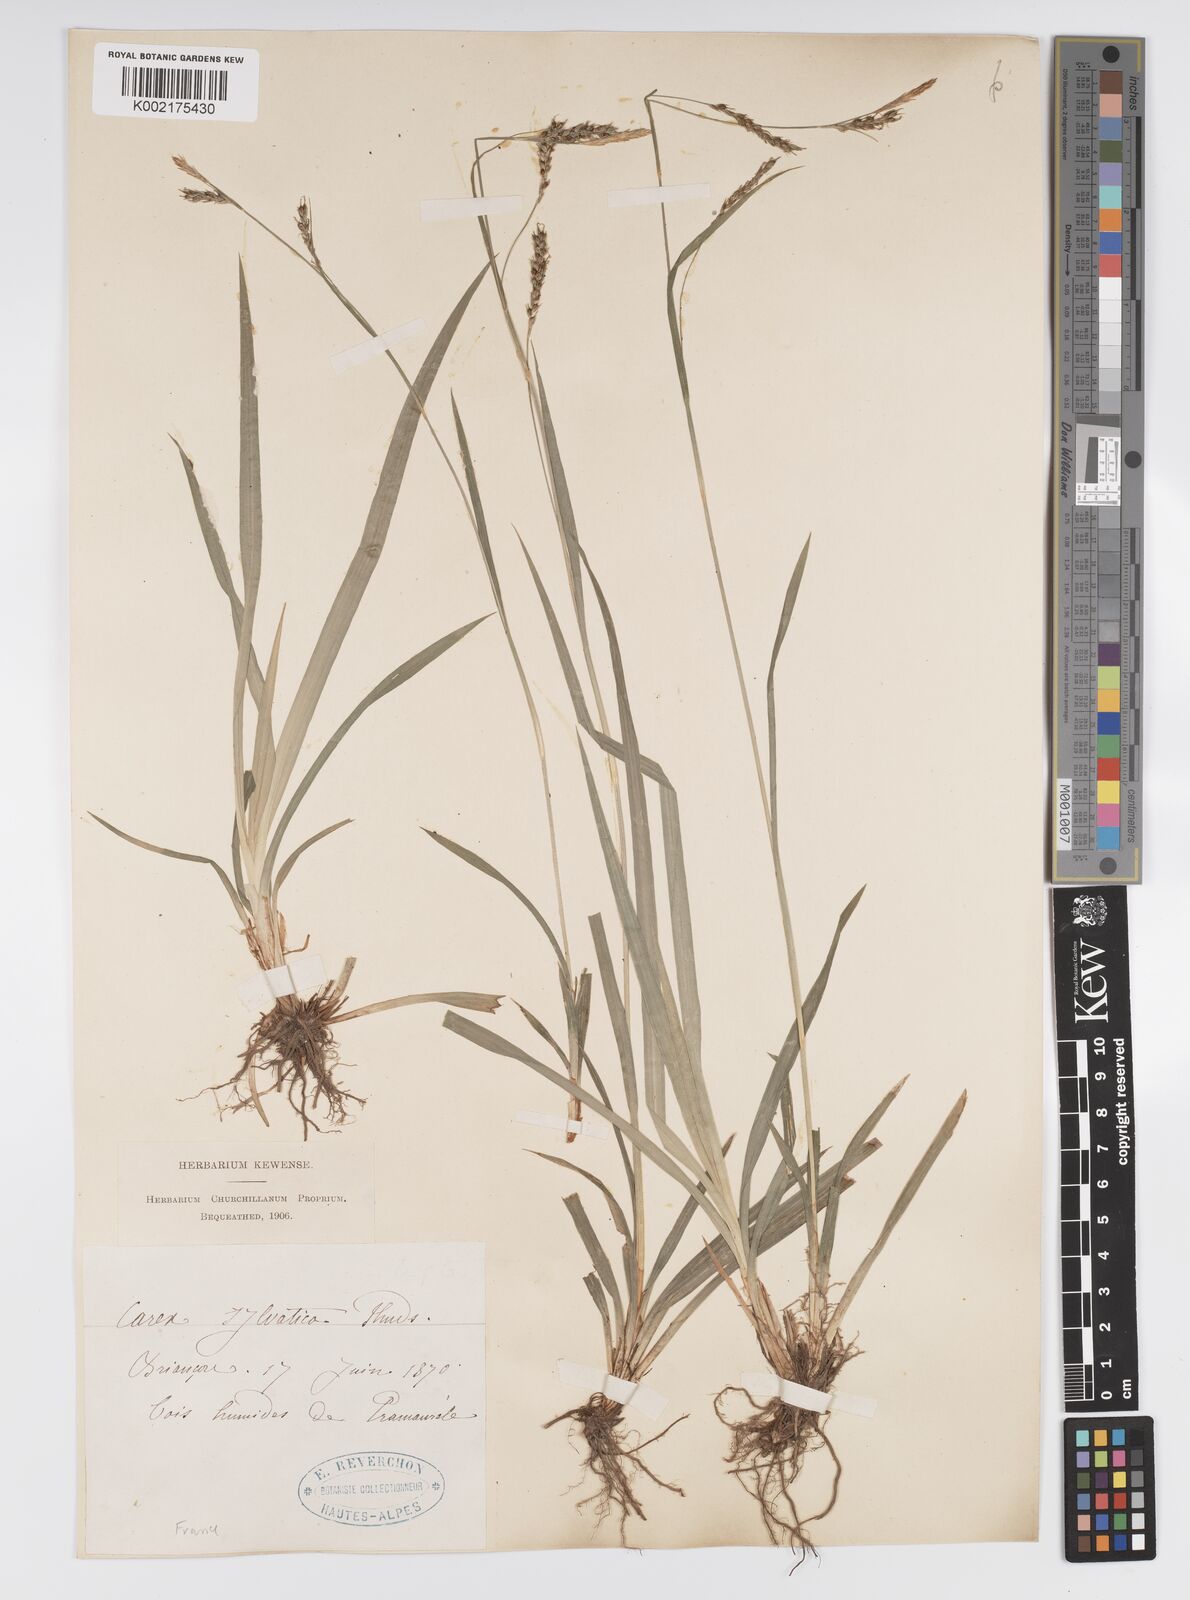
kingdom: Plantae
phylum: Tracheophyta
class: Liliopsida
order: Poales
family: Cyperaceae
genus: Carex
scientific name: Carex sylvatica
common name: Wood-sedge
